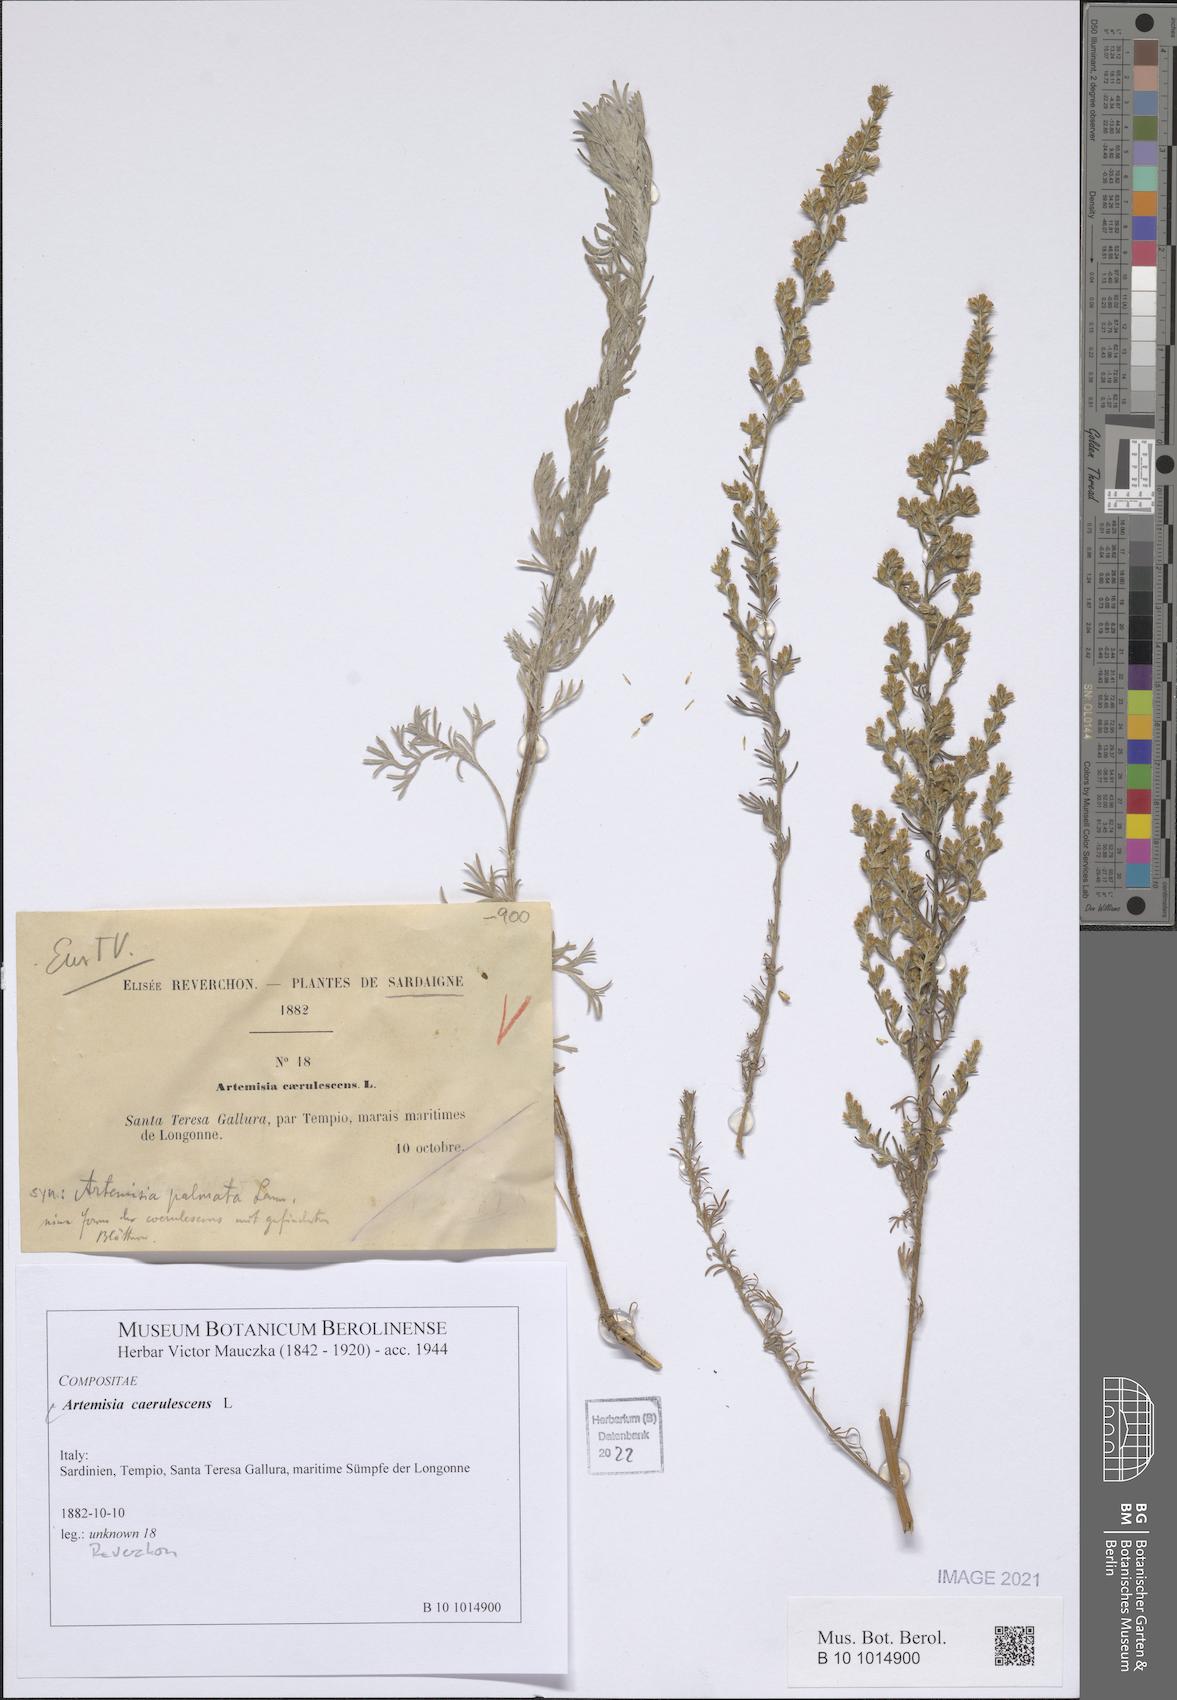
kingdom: Plantae
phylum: Tracheophyta
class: Magnoliopsida
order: Asterales
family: Asteraceae
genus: Artemisia
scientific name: Artemisia caerulescens
